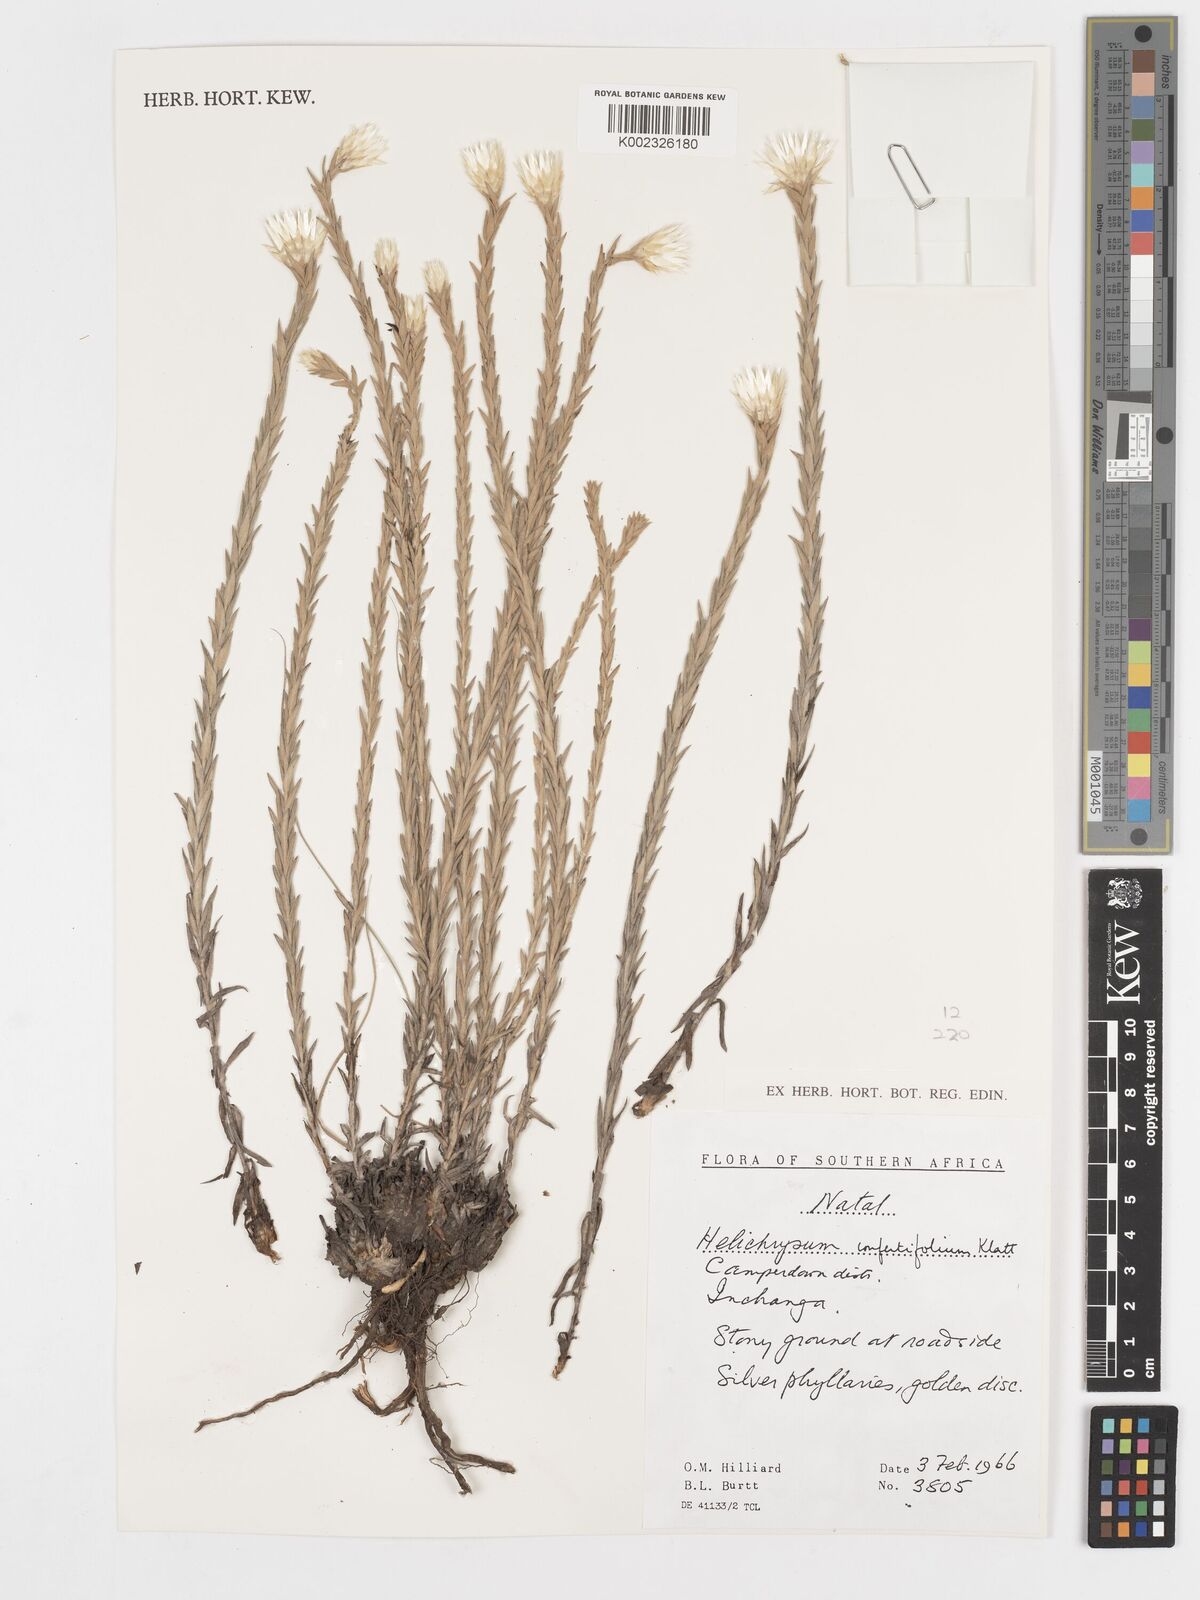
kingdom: Plantae
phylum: Tracheophyta
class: Magnoliopsida
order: Asterales
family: Asteraceae
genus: Helichrysum
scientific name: Helichrysum confertifolium
